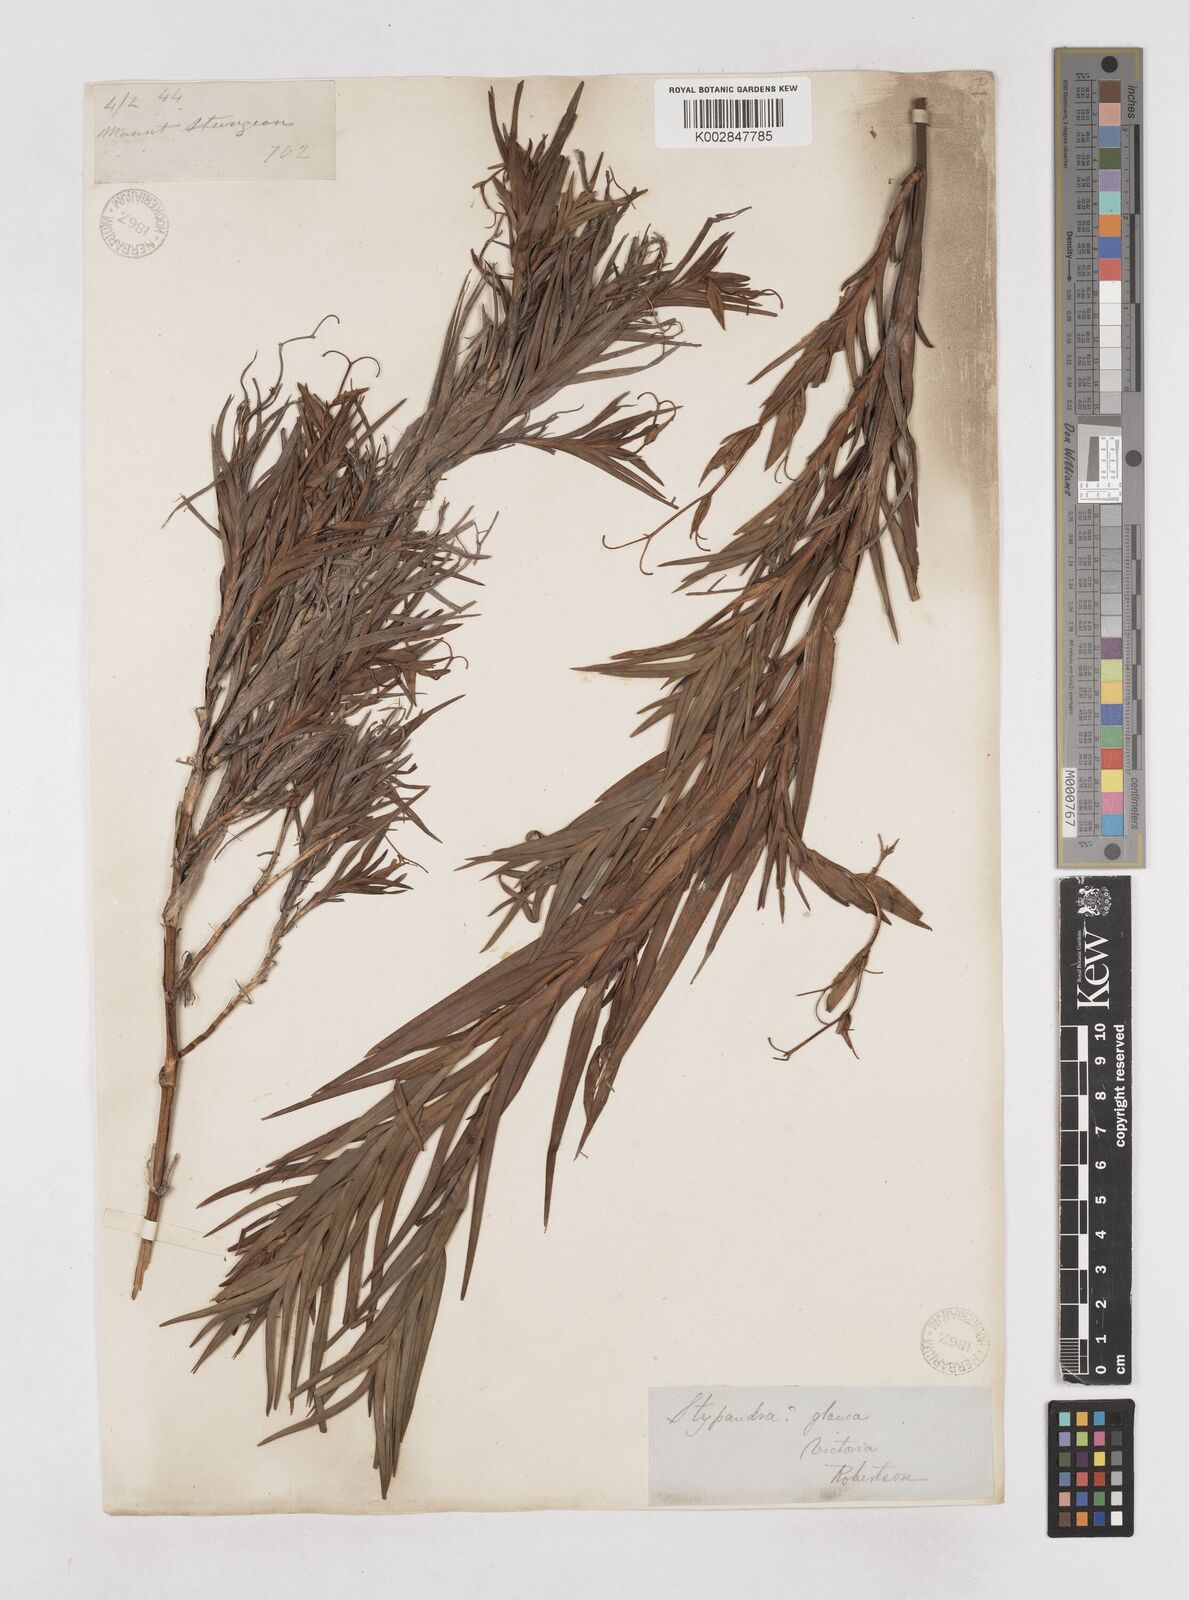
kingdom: Plantae
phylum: Tracheophyta
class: Liliopsida
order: Asparagales
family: Asphodelaceae
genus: Stypandra
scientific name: Stypandra glauca
